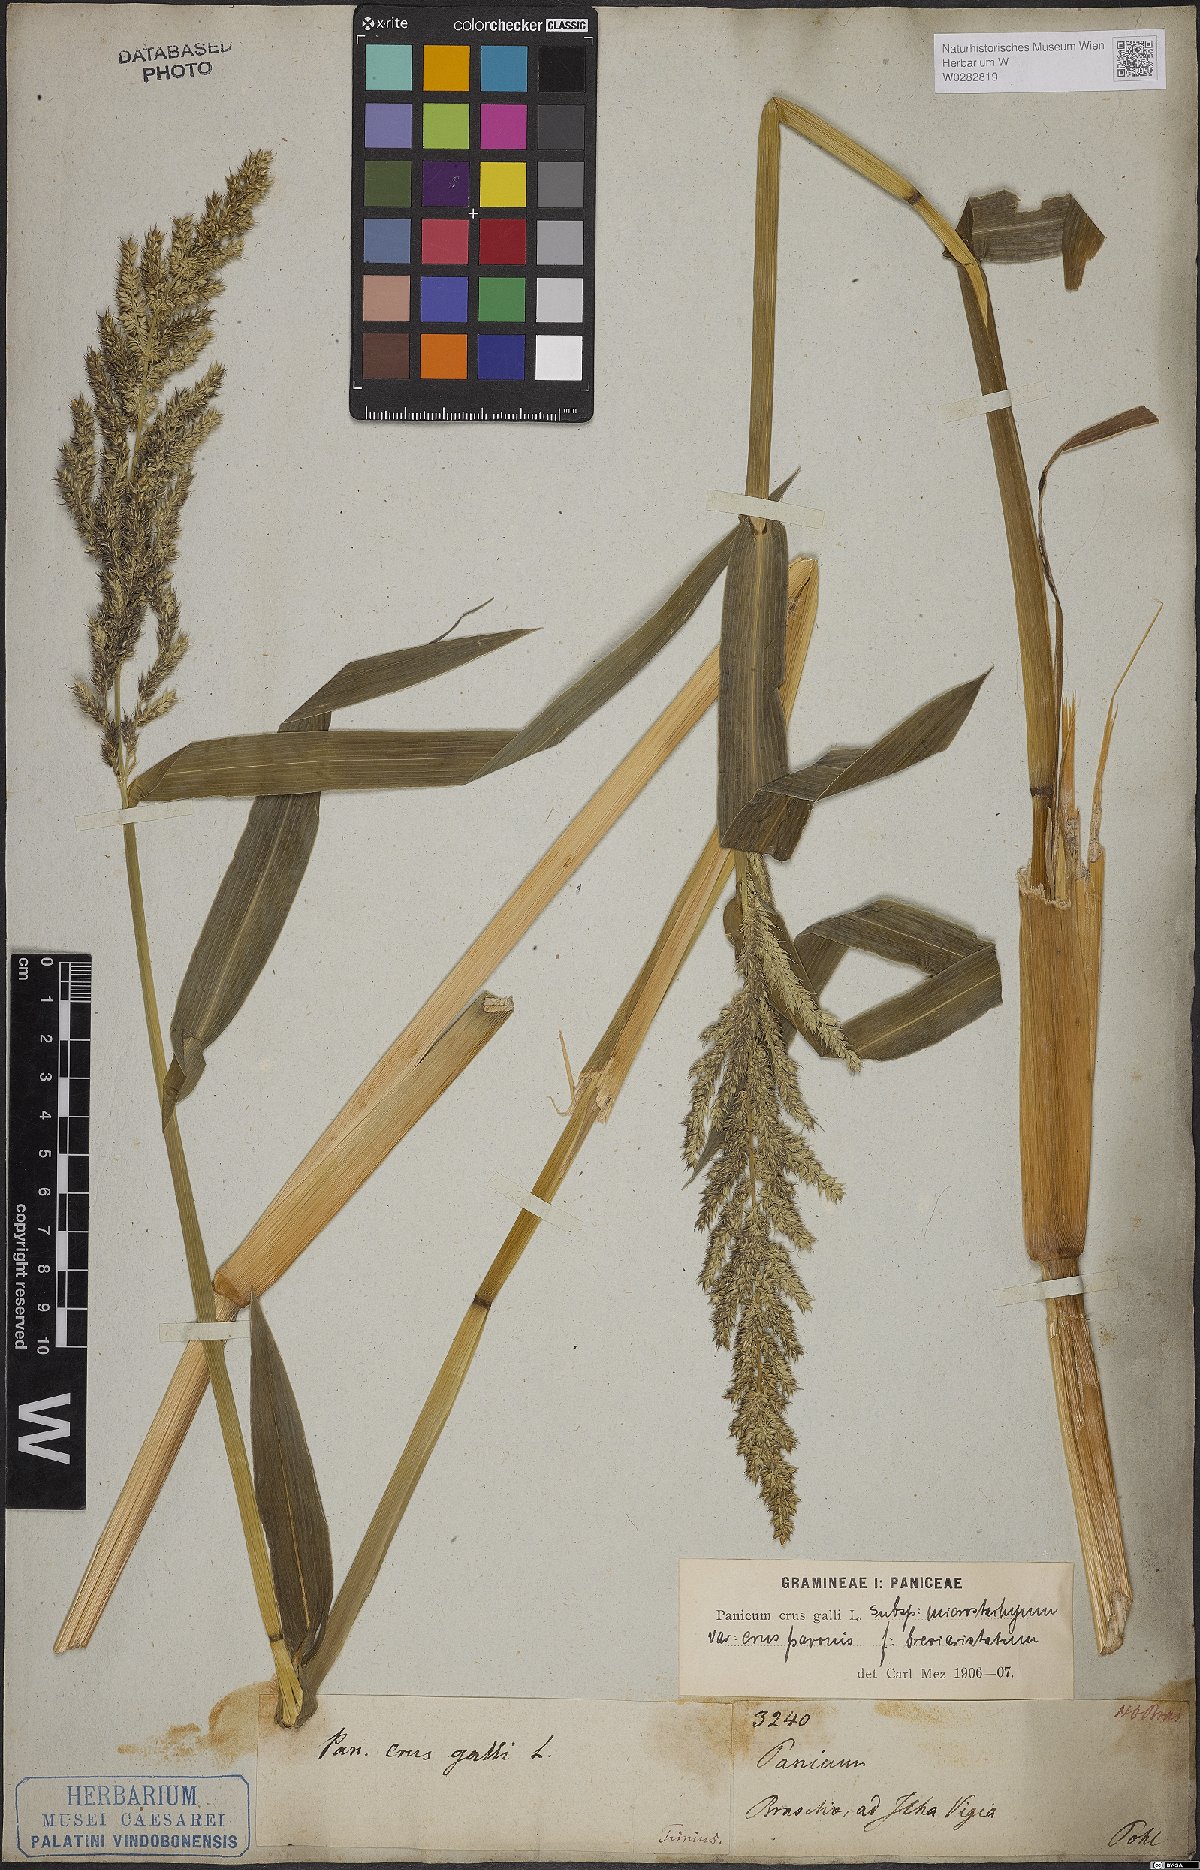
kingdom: Plantae
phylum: Tracheophyta
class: Liliopsida
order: Poales
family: Poaceae
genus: Echinochloa
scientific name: Echinochloa crus-galli
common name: Cockspur
